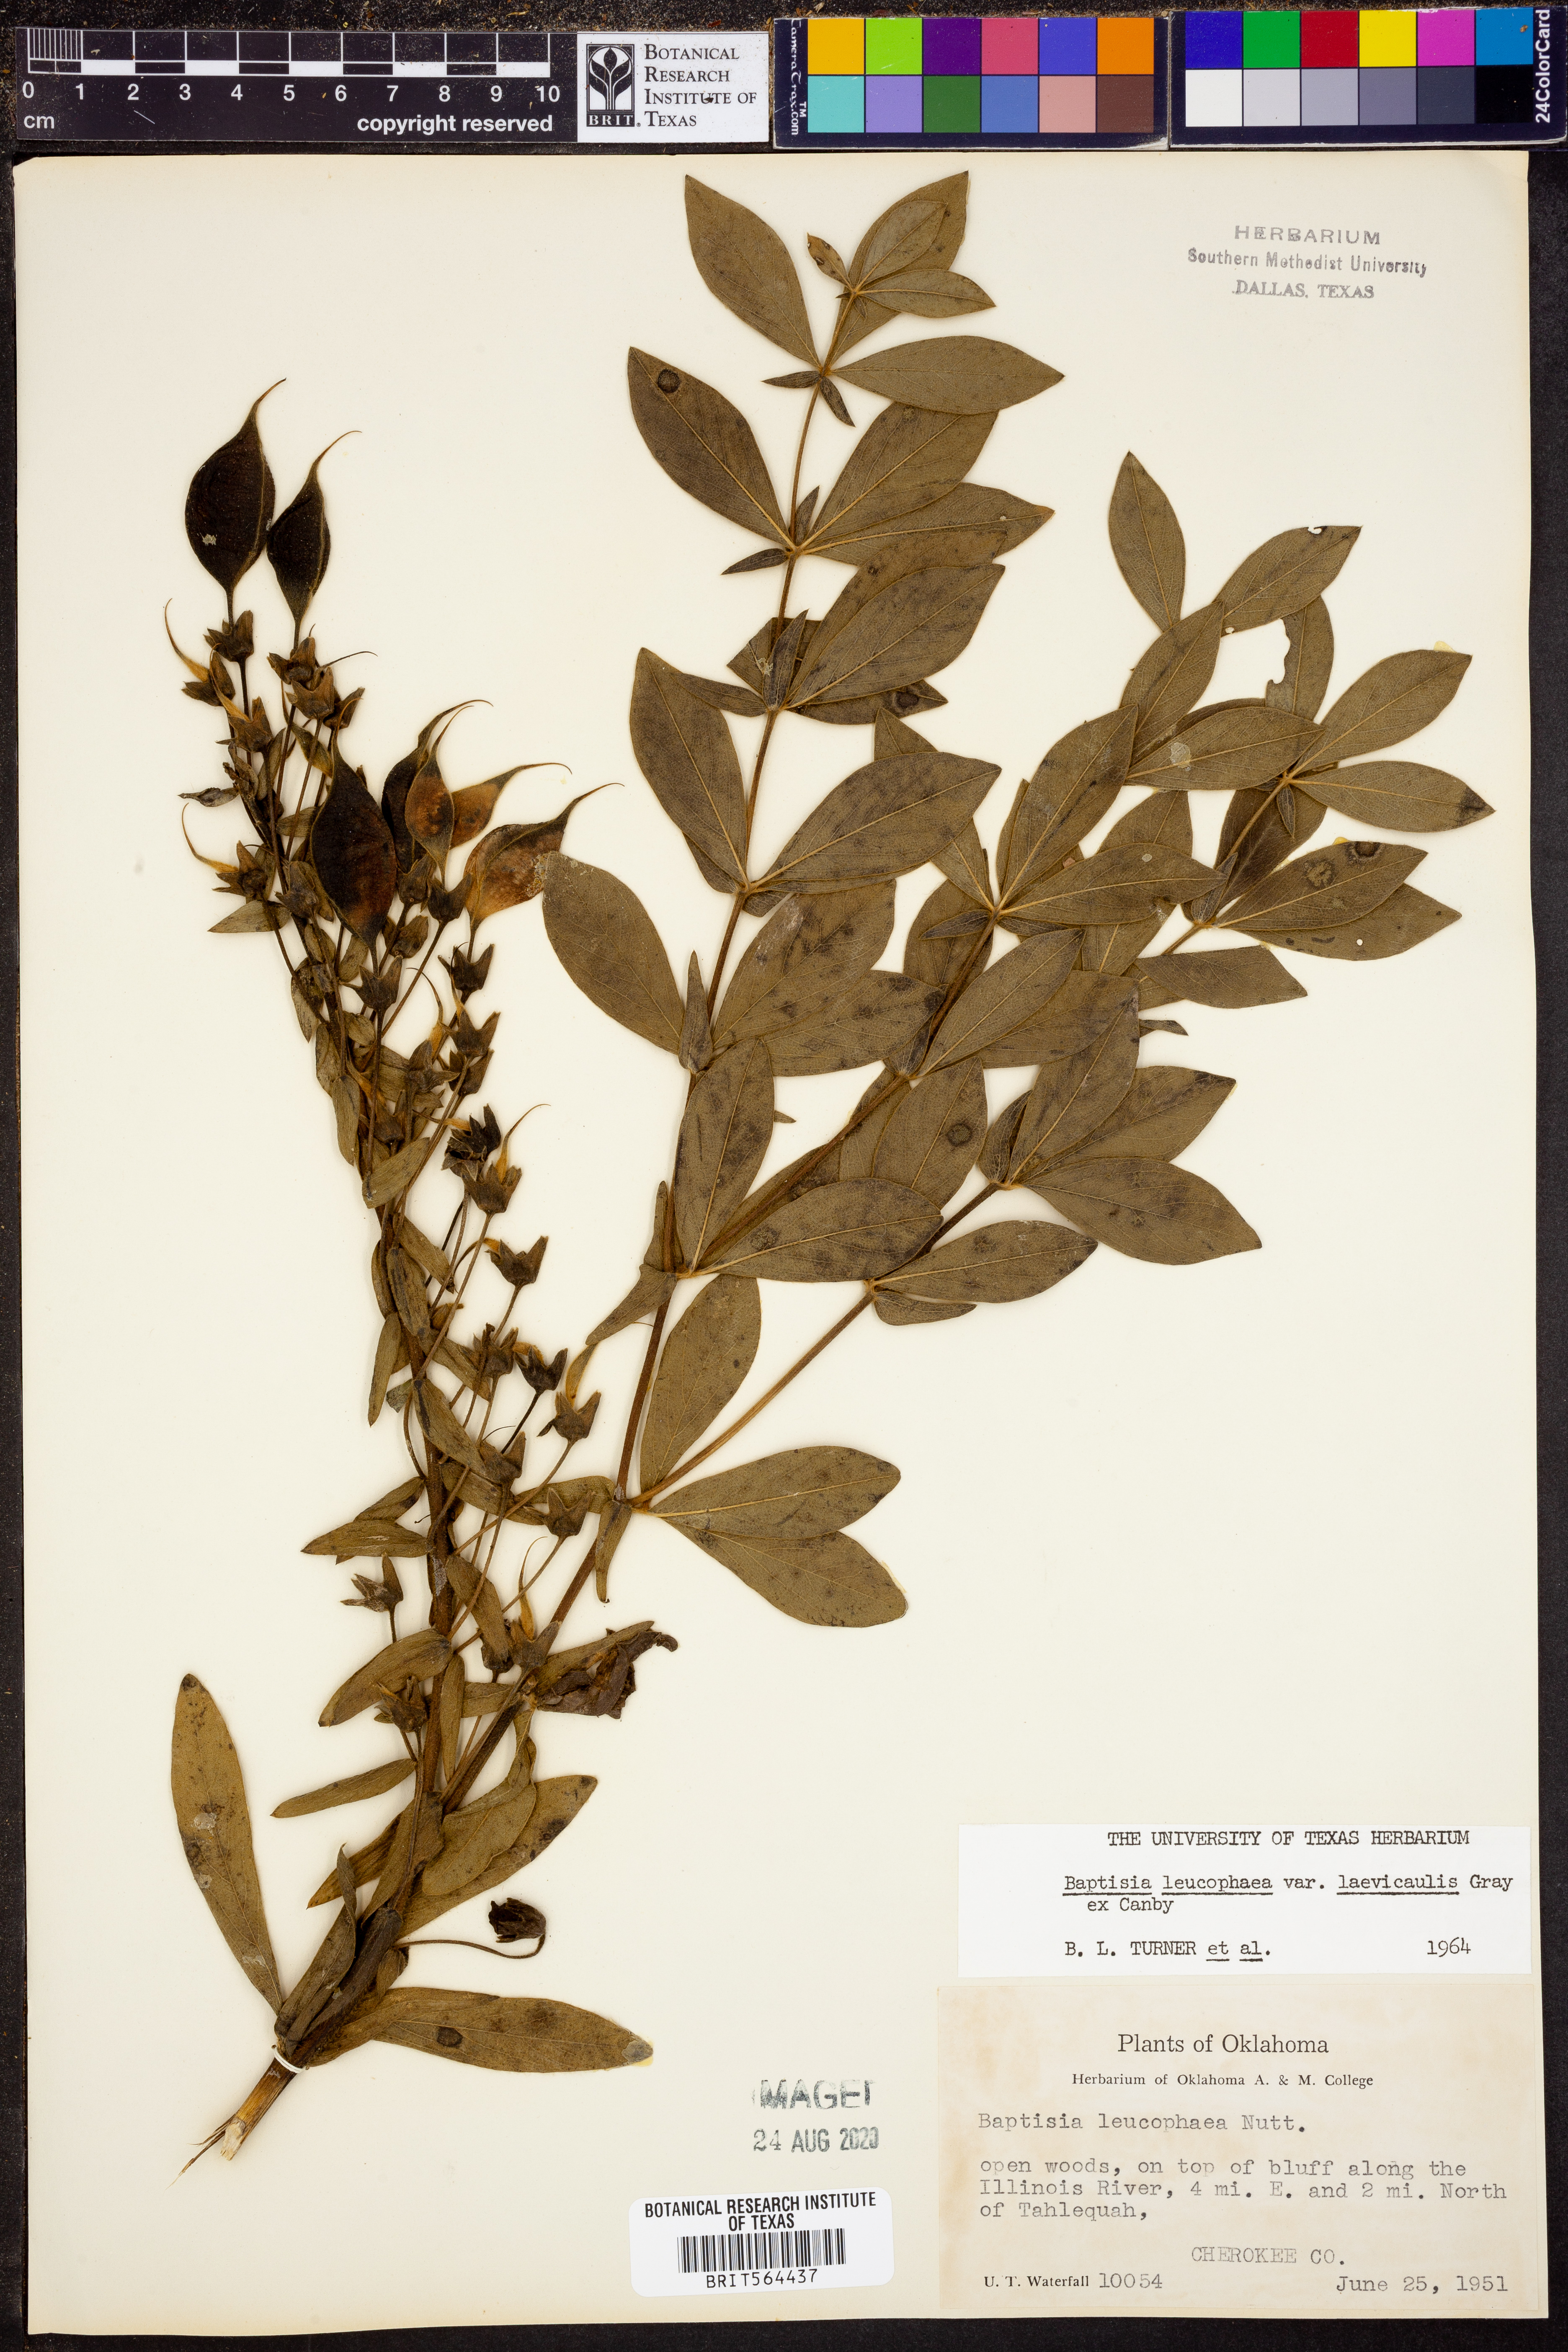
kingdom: Plantae
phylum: Tracheophyta
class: Magnoliopsida
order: Fabales
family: Fabaceae
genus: Baptisia
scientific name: Baptisia bracteata
